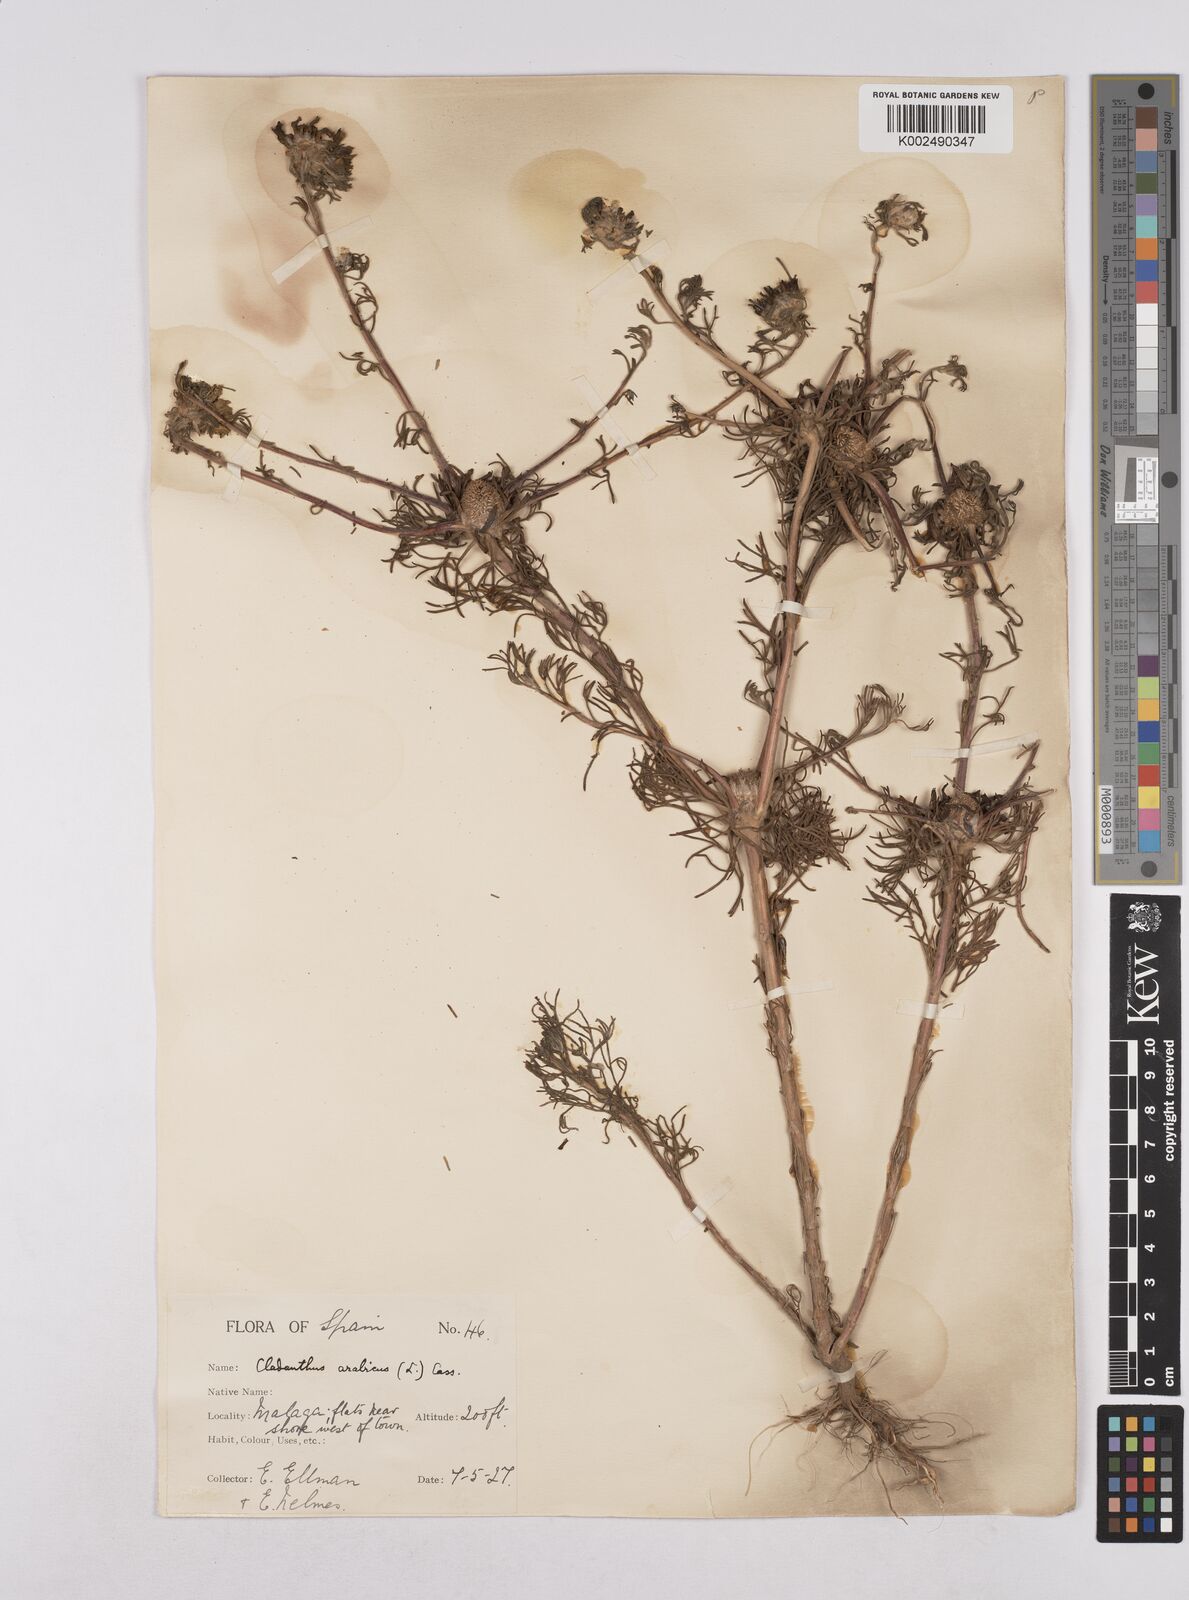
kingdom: Plantae
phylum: Tracheophyta
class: Magnoliopsida
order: Asterales
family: Asteraceae
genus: Cladanthus
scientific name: Cladanthus arabicus
